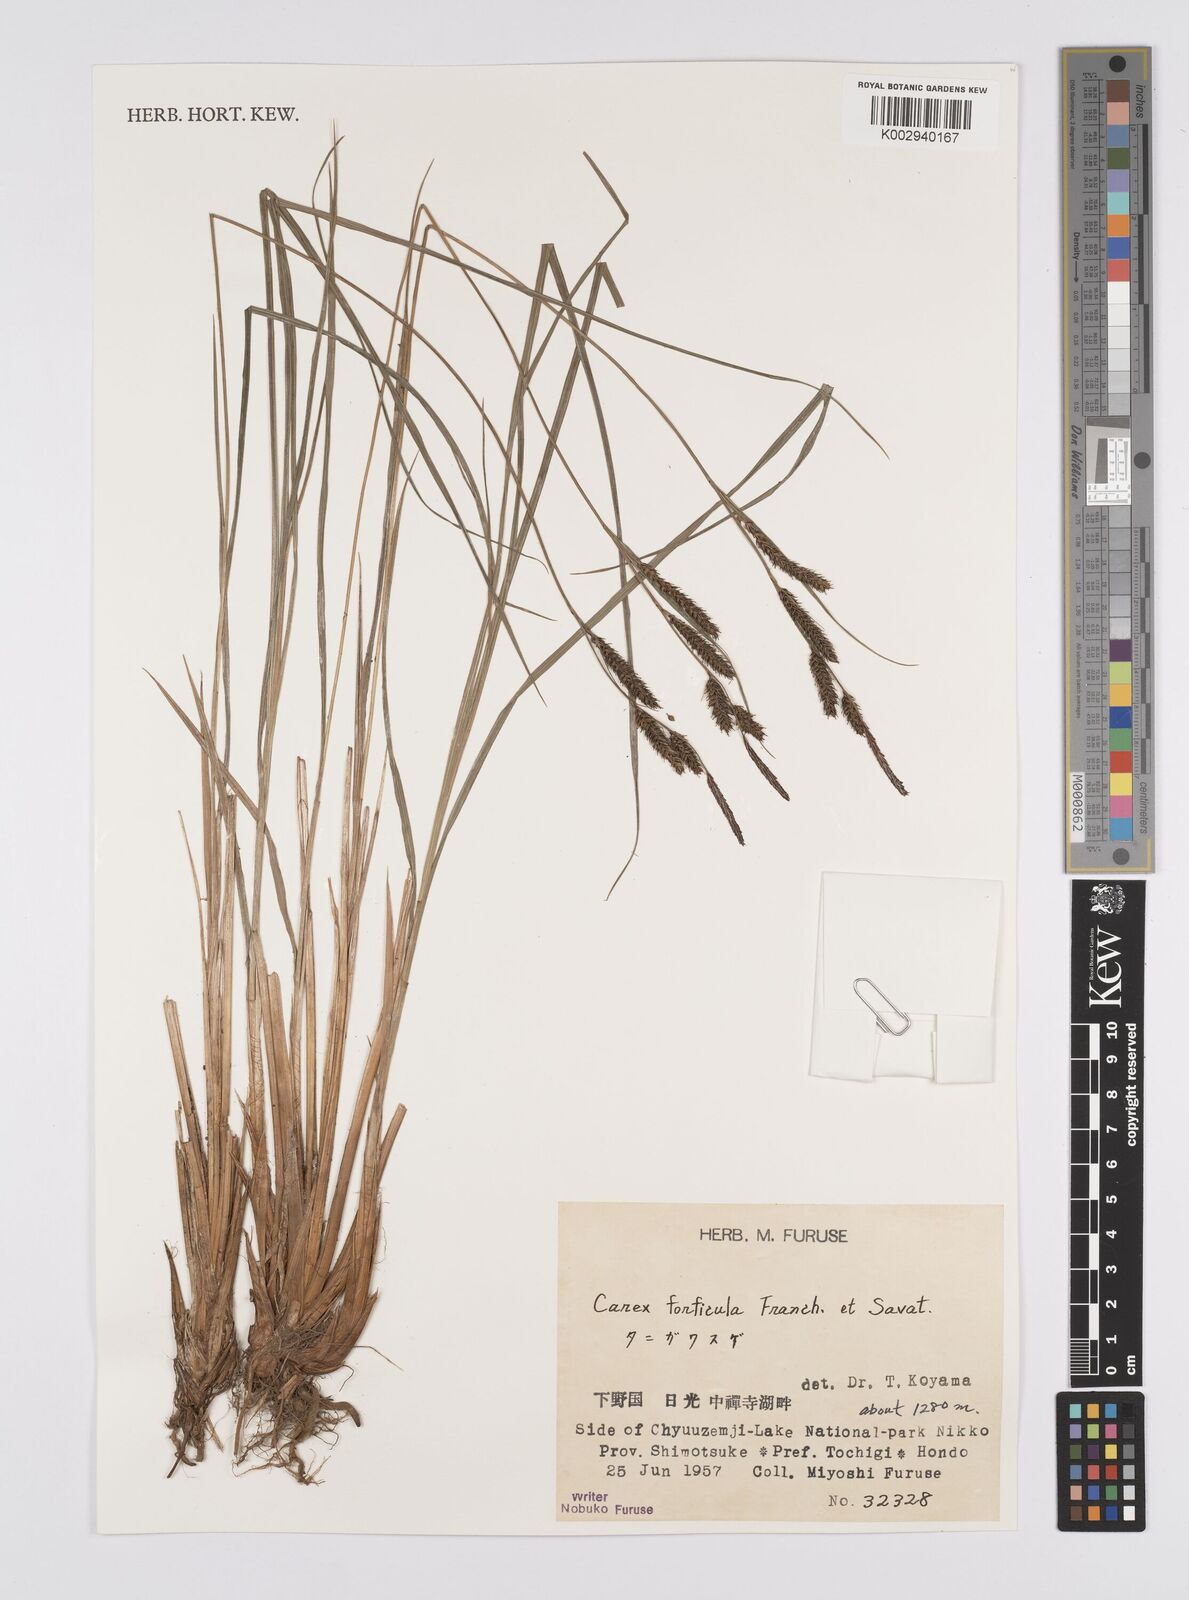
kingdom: Plantae
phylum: Tracheophyta
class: Liliopsida
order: Poales
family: Cyperaceae
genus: Carex
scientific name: Carex forficula
